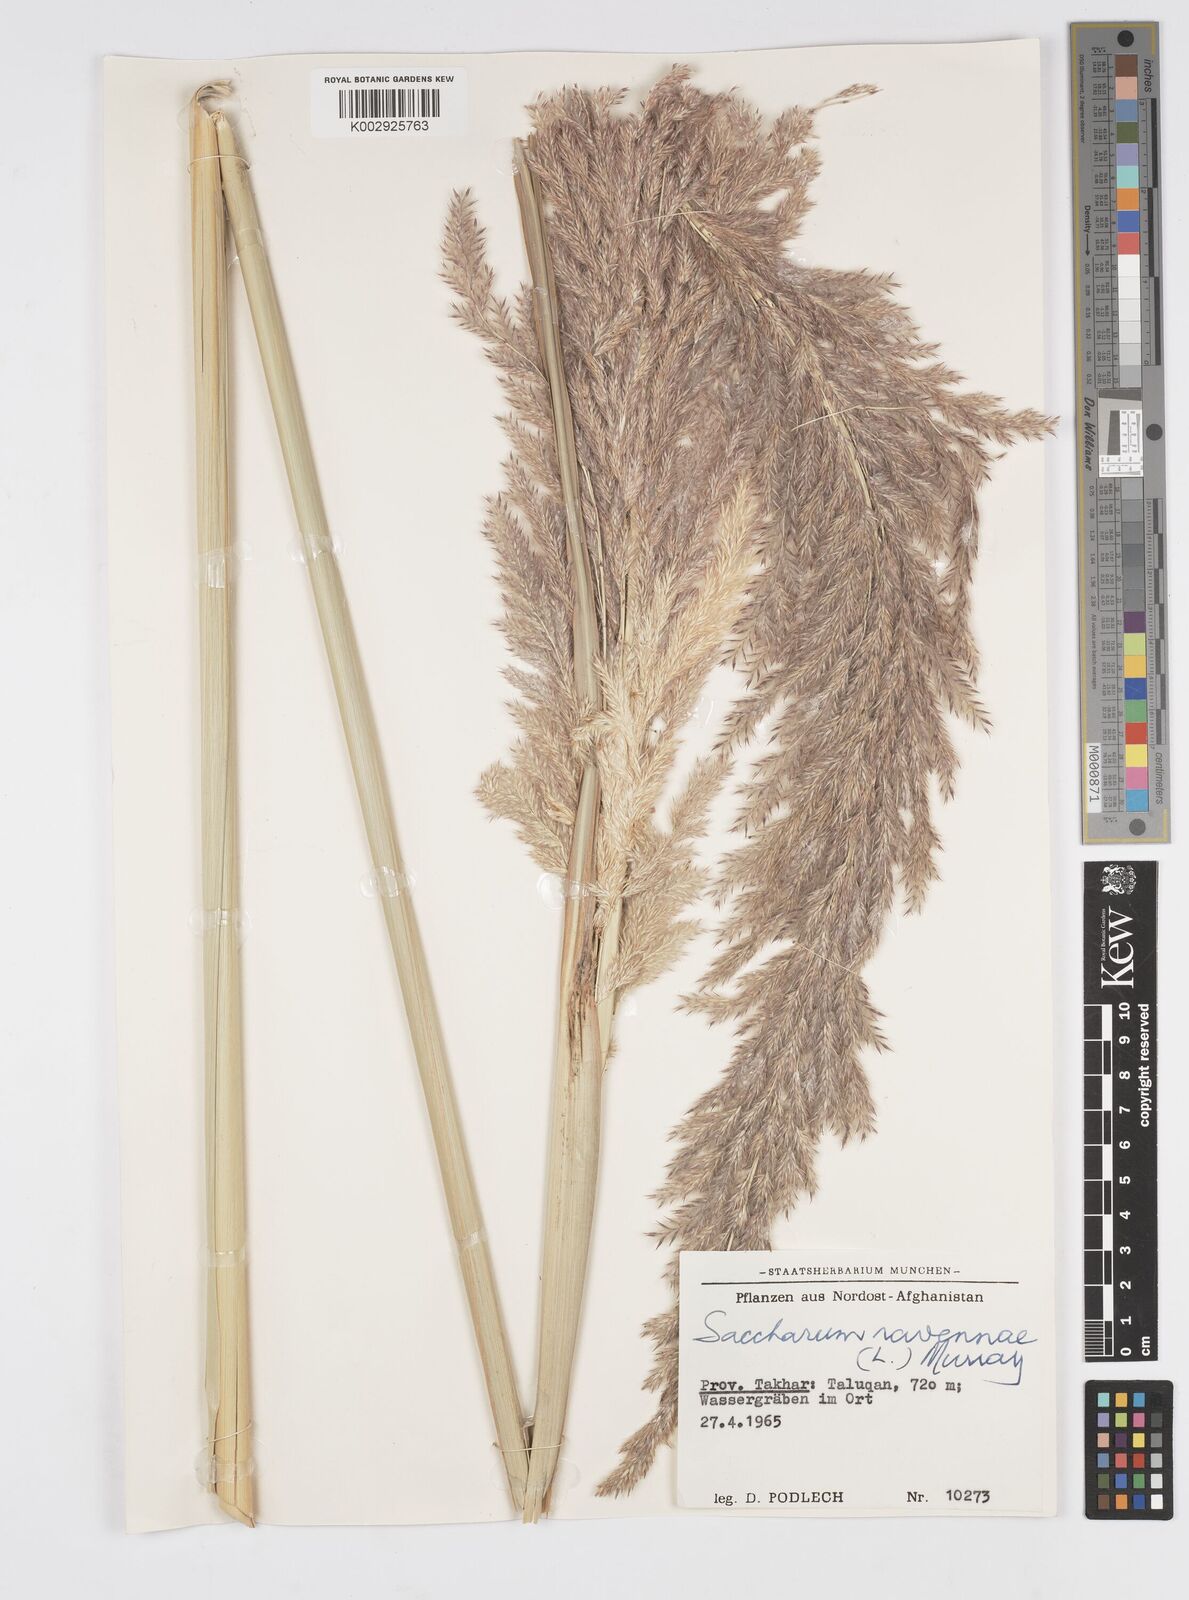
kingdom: Plantae
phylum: Tracheophyta
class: Liliopsida
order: Poales
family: Poaceae
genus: Tripidium
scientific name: Tripidium ravennae
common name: Ravenna grass
